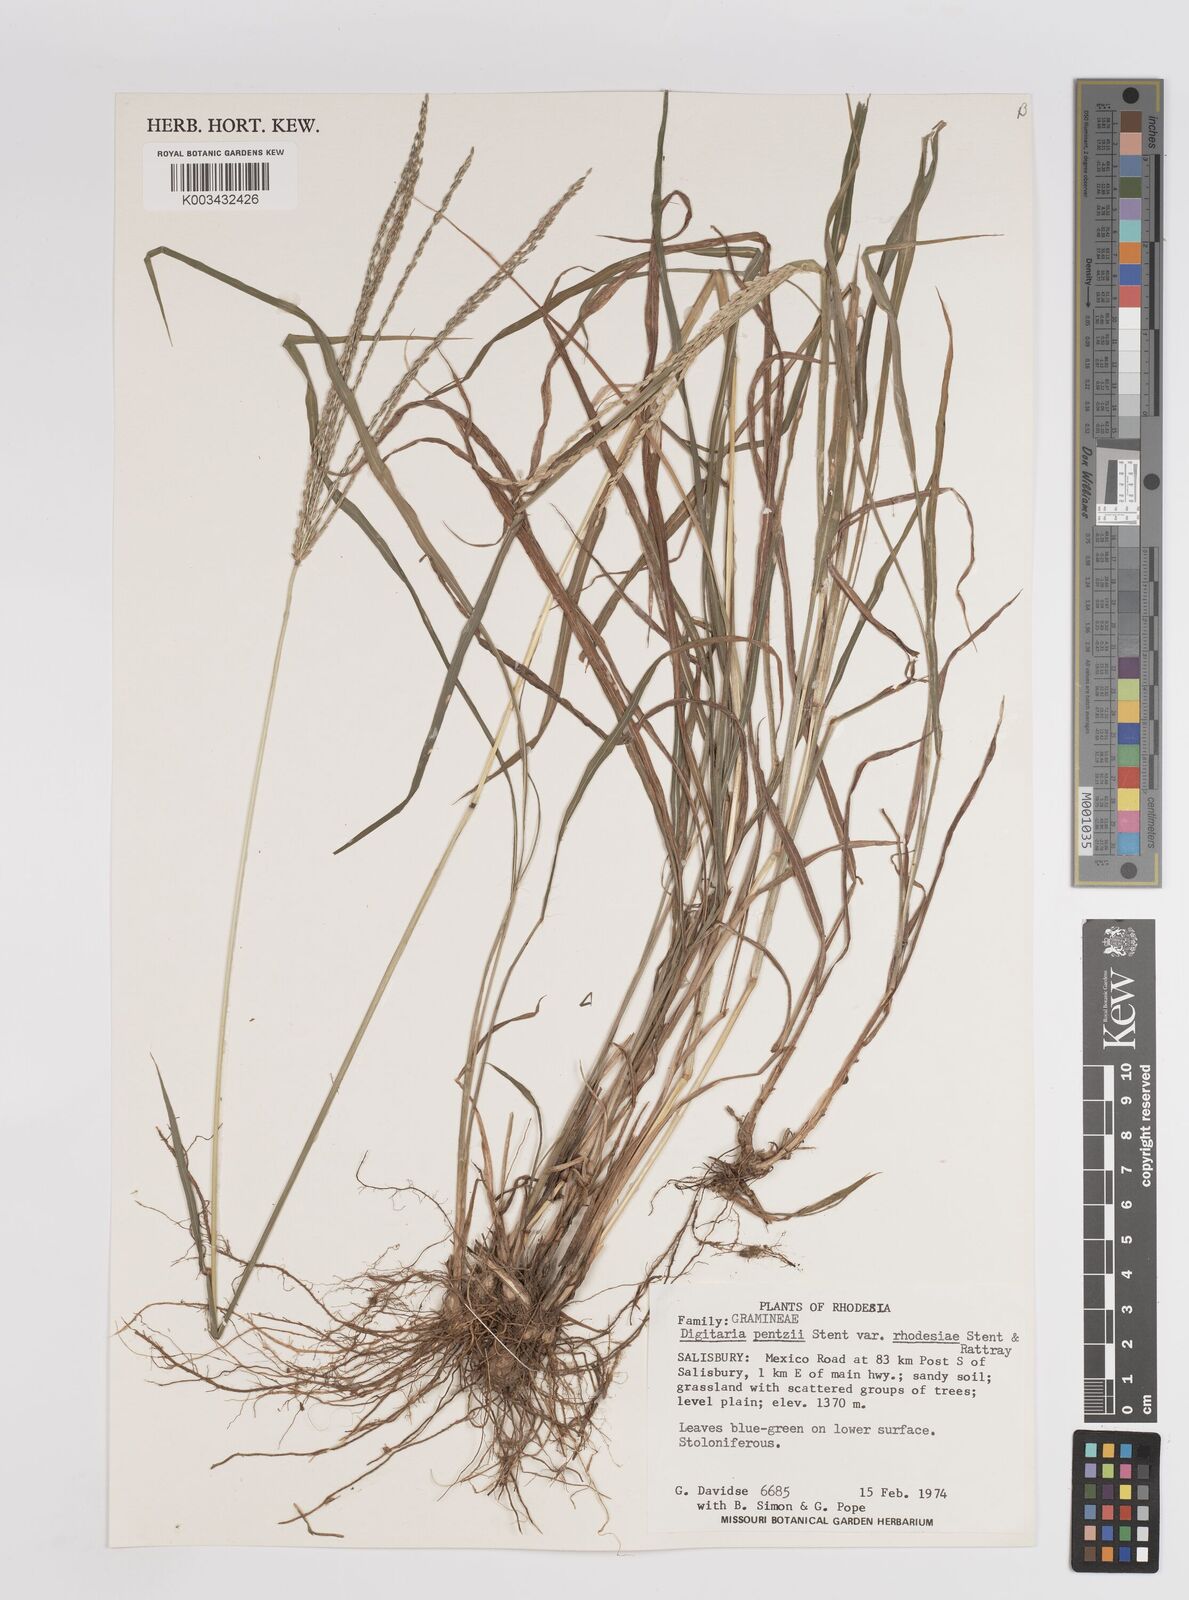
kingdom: Plantae
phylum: Tracheophyta
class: Liliopsida
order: Poales
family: Poaceae
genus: Digitaria
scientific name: Digitaria eriantha
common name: Digitgrass
